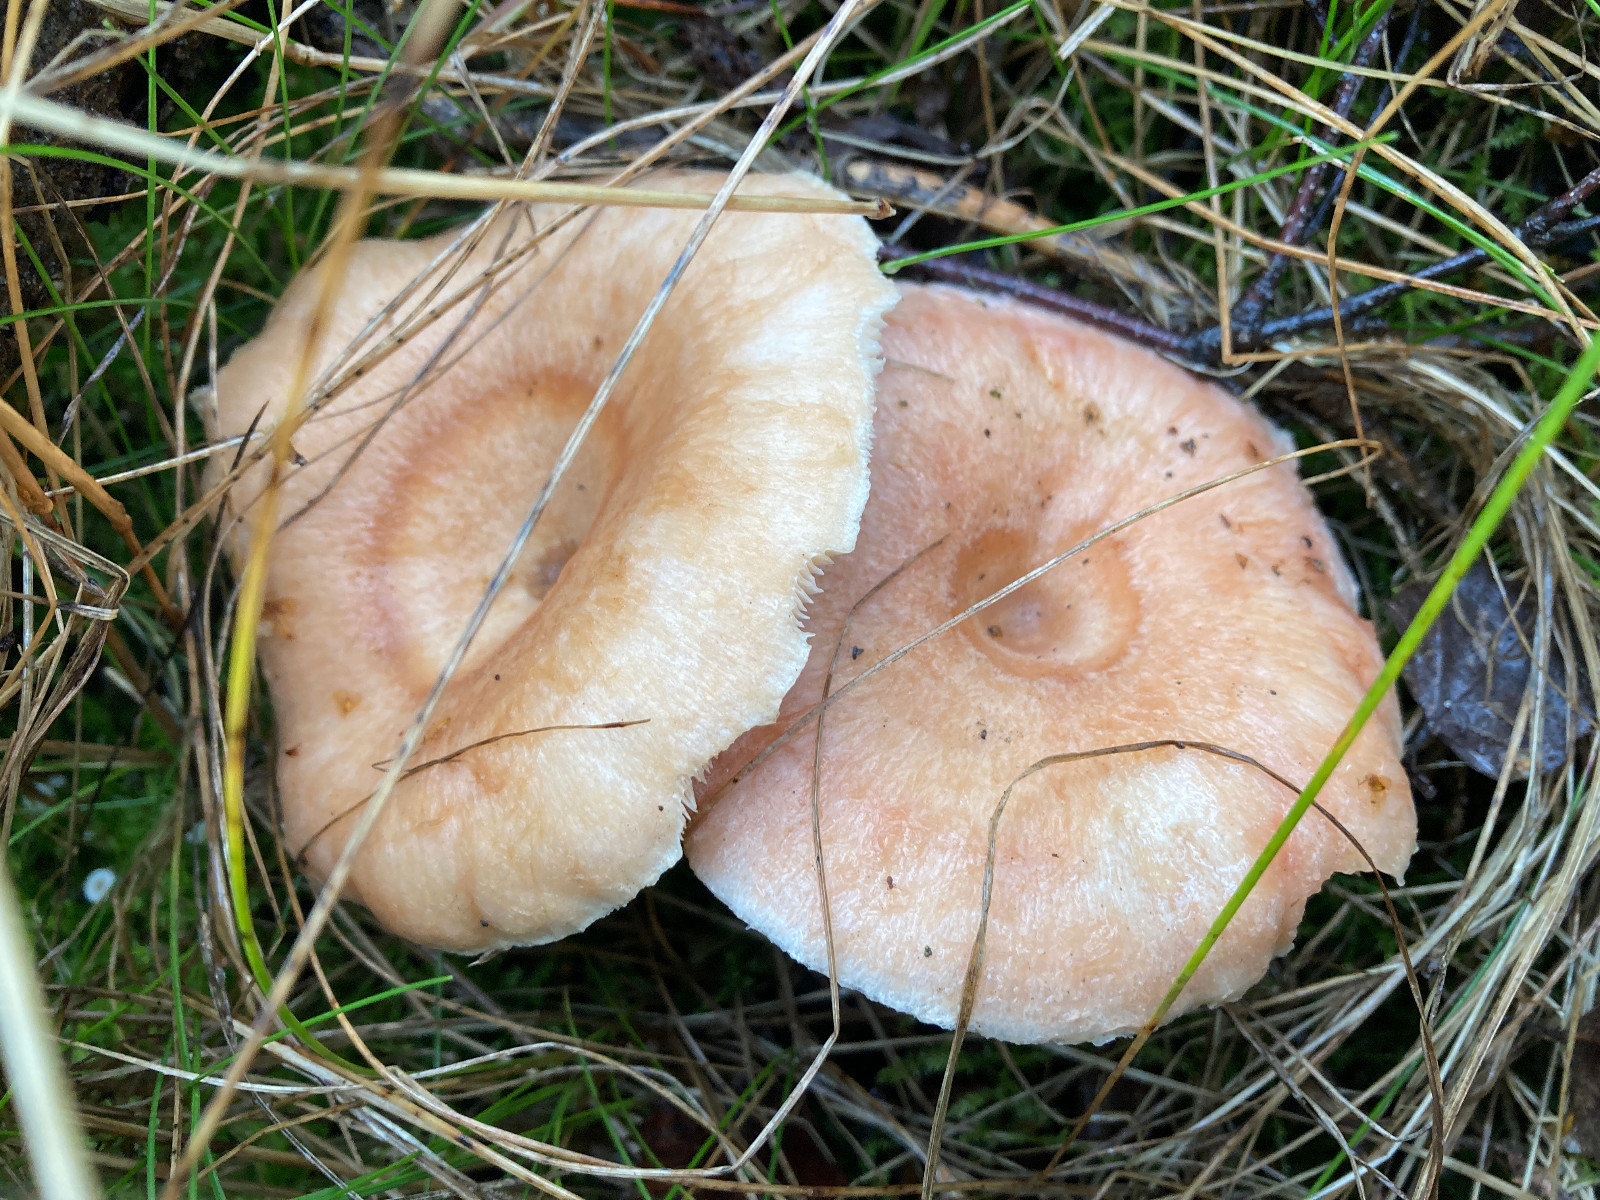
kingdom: Fungi
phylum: Basidiomycota
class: Agaricomycetes
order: Russulales
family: Russulaceae
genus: Lactarius
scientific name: Lactarius pubescens
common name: dunet mælkehat
